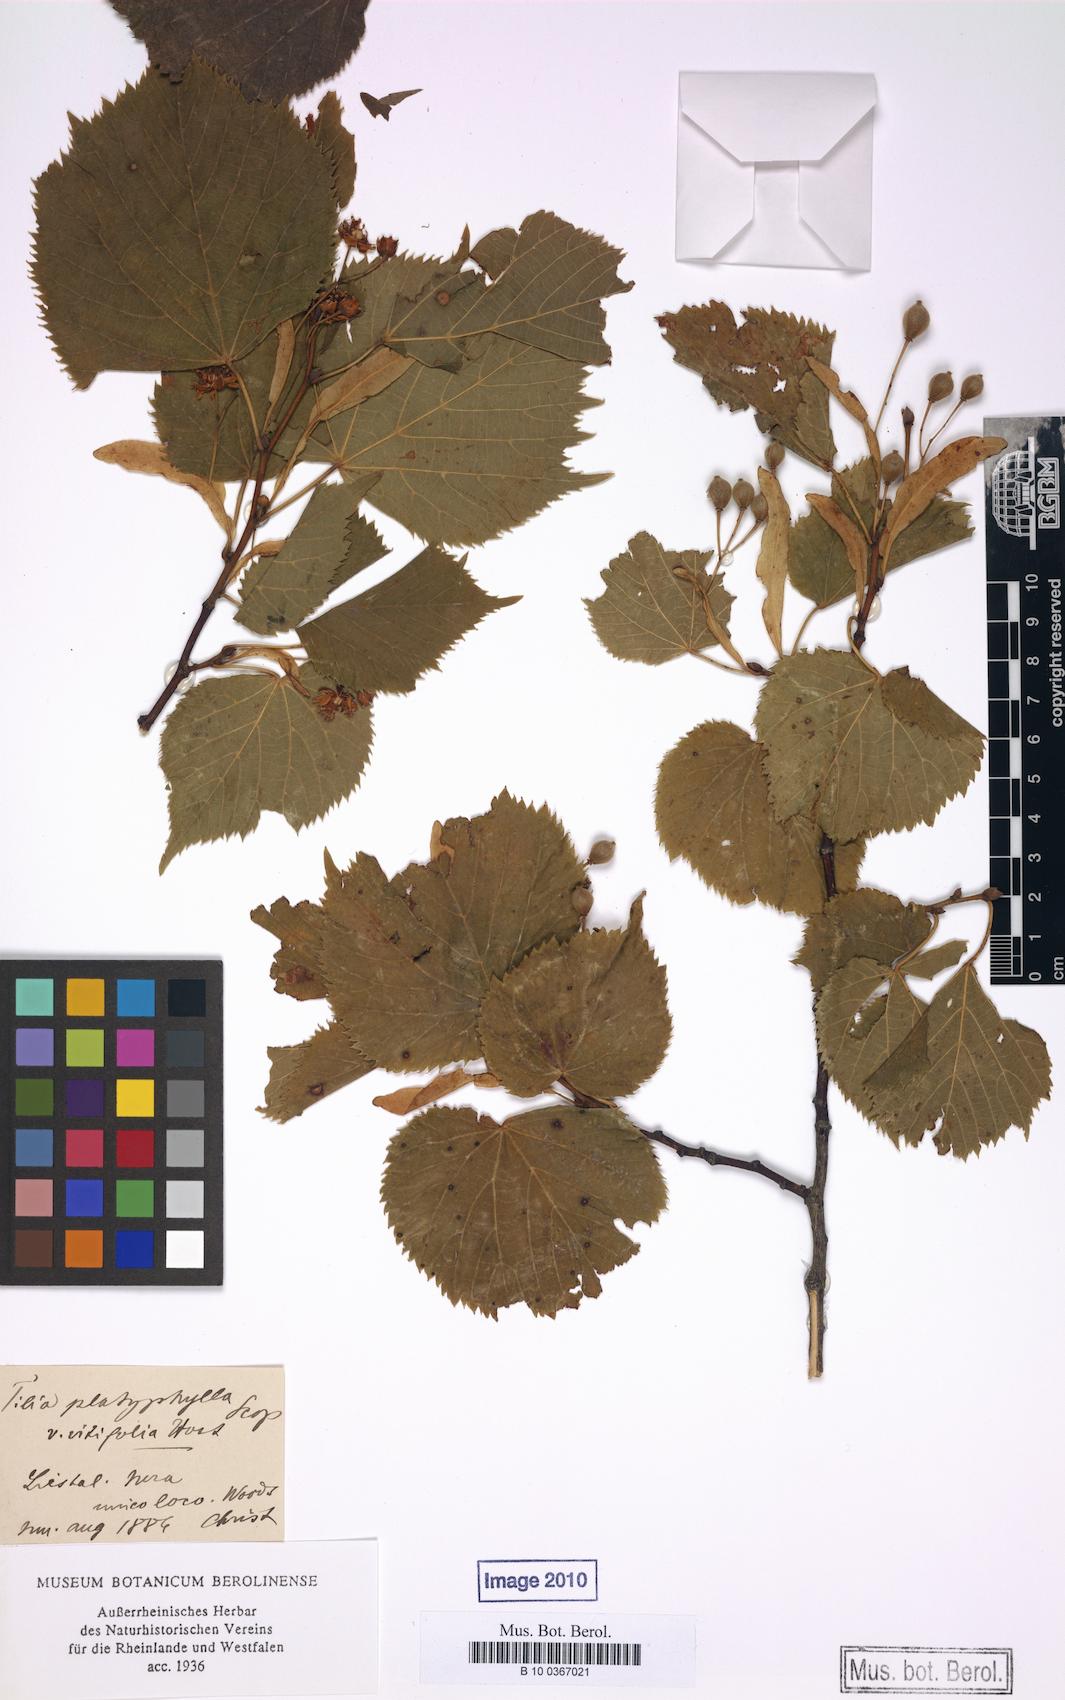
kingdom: Plantae
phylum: Tracheophyta
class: Magnoliopsida
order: Malvales
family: Malvaceae
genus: Tilia
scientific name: Tilia platyphyllos
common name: Large-leaved lime
